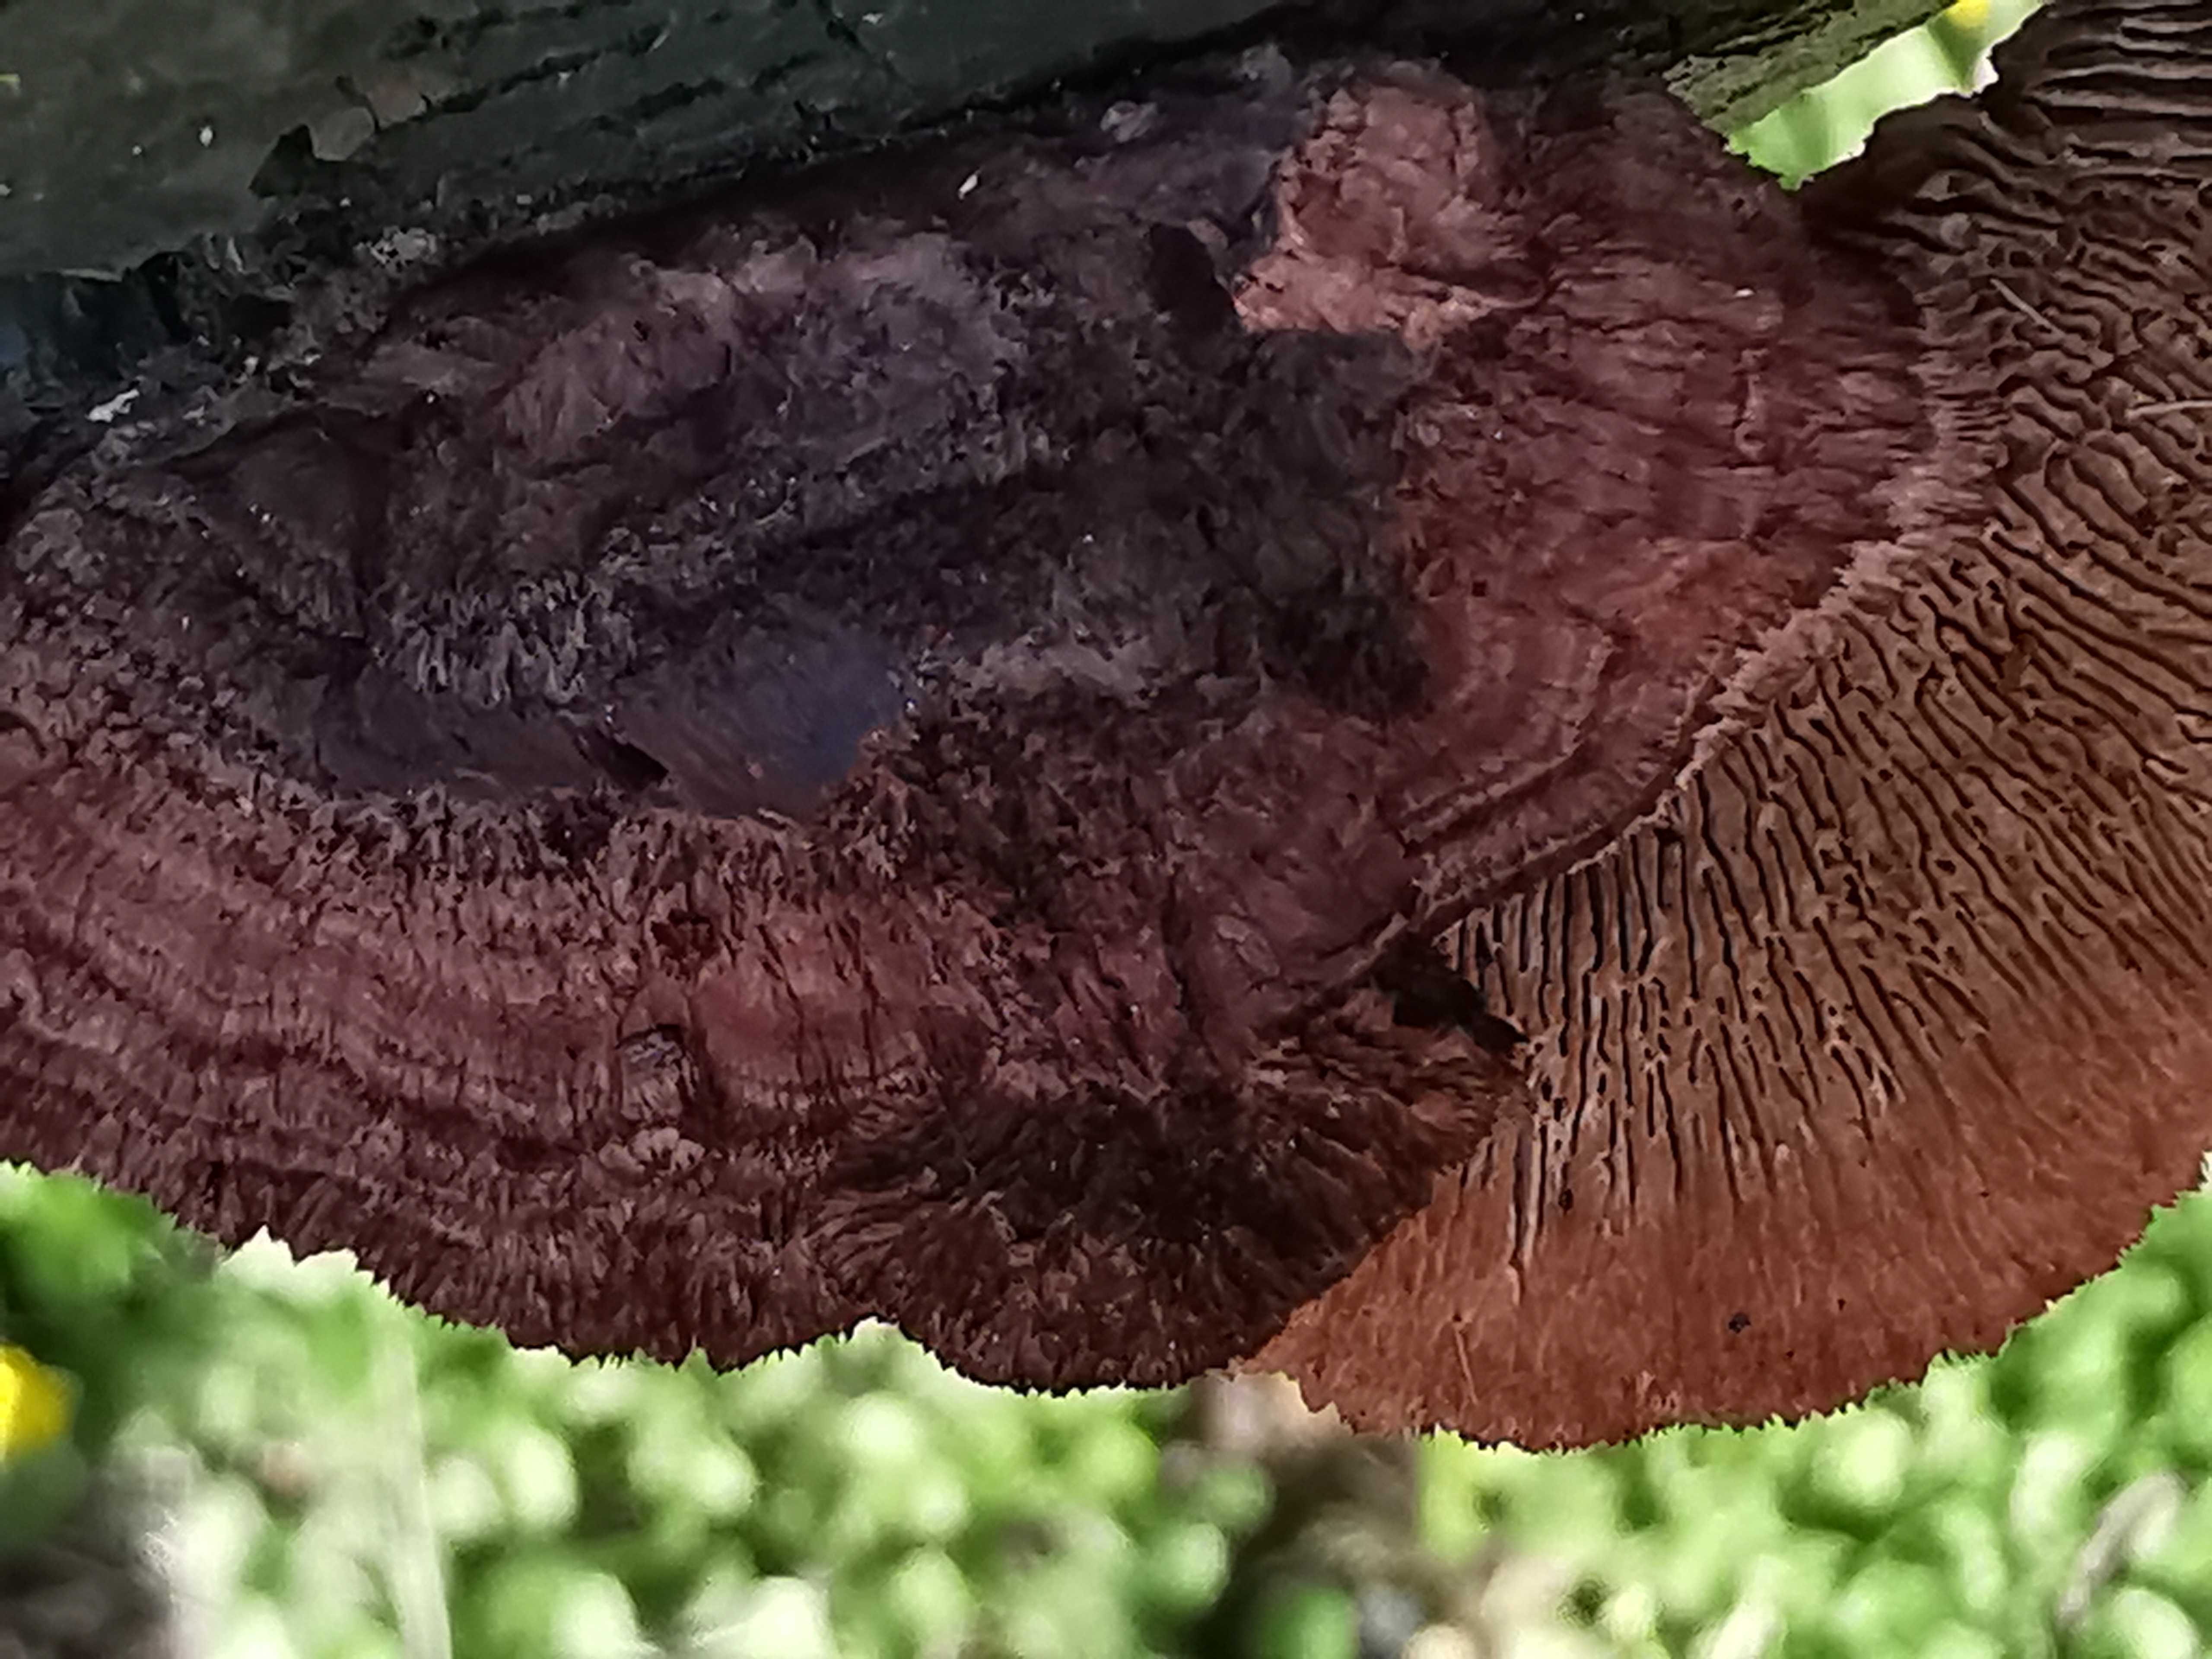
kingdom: Fungi
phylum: Basidiomycota
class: Agaricomycetes
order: Gloeophyllales
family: Gloeophyllaceae
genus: Gloeophyllum
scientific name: Gloeophyllum sepiarium
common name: fyrre-korkhat
